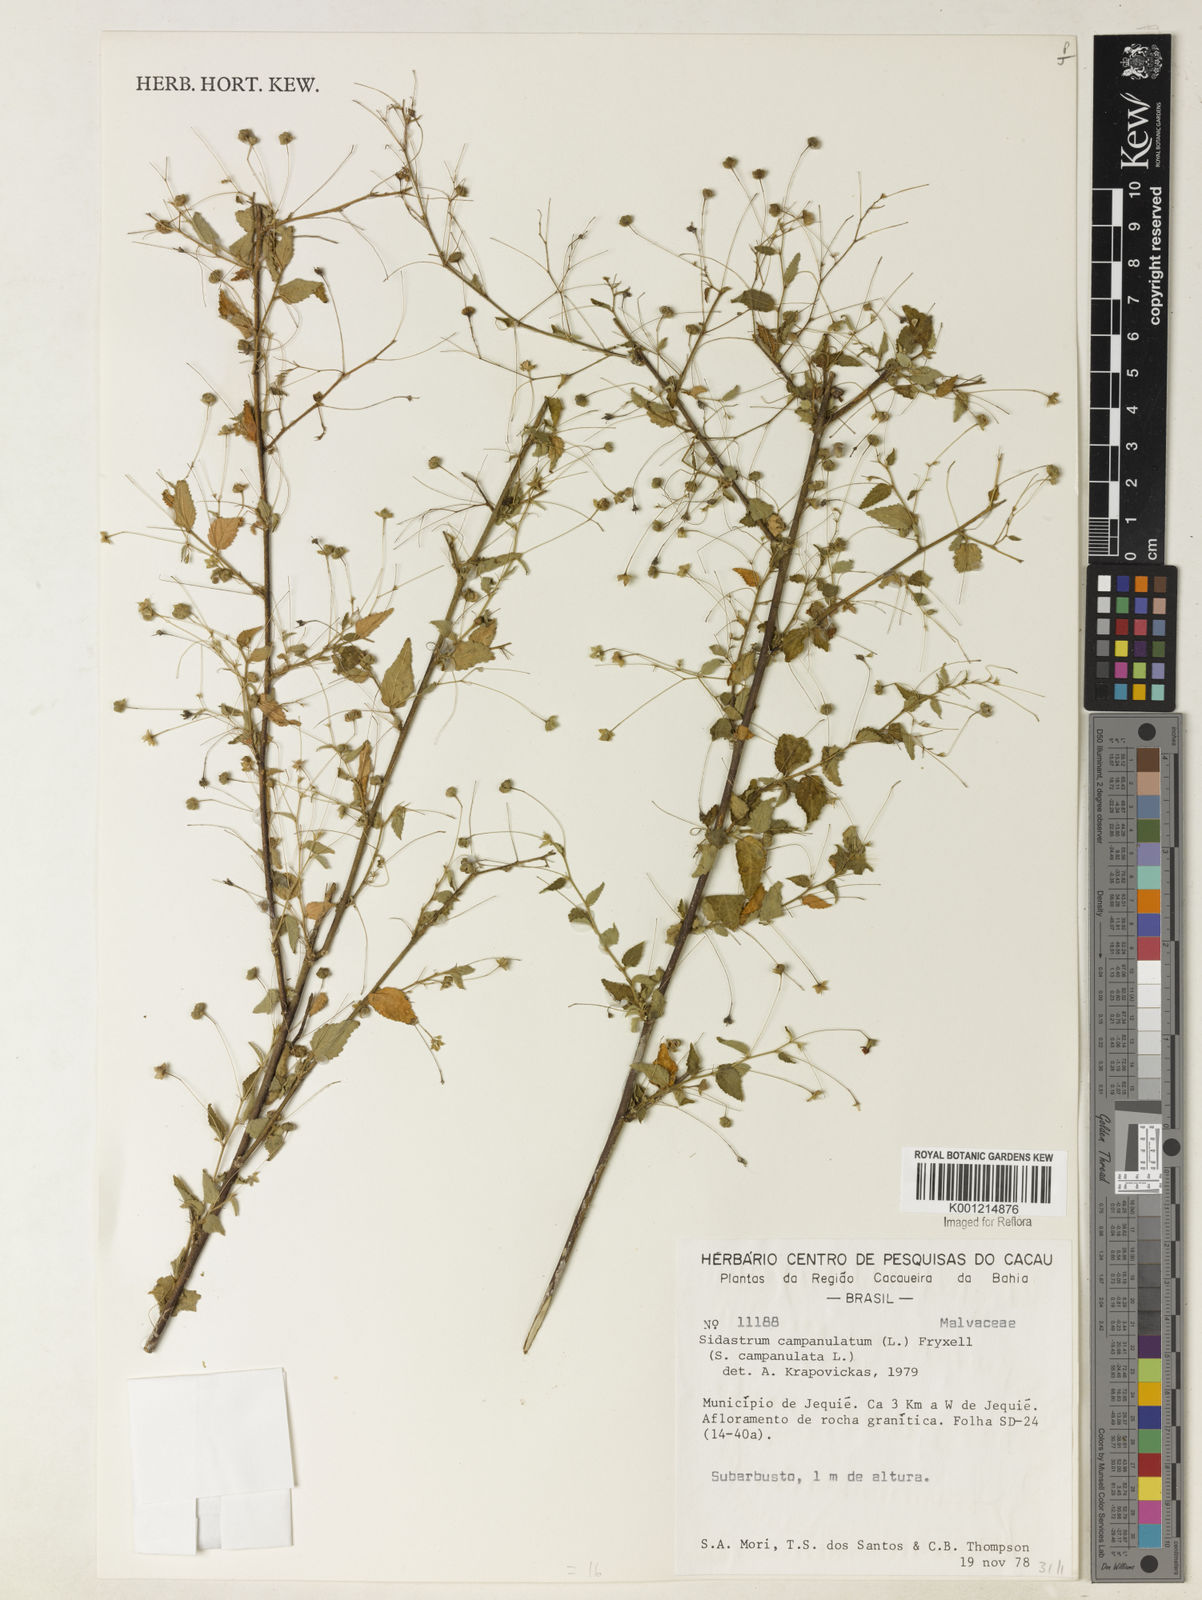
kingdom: Plantae
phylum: Tracheophyta
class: Magnoliopsida
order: Malvales
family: Malvaceae
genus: Sida
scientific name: Sida
